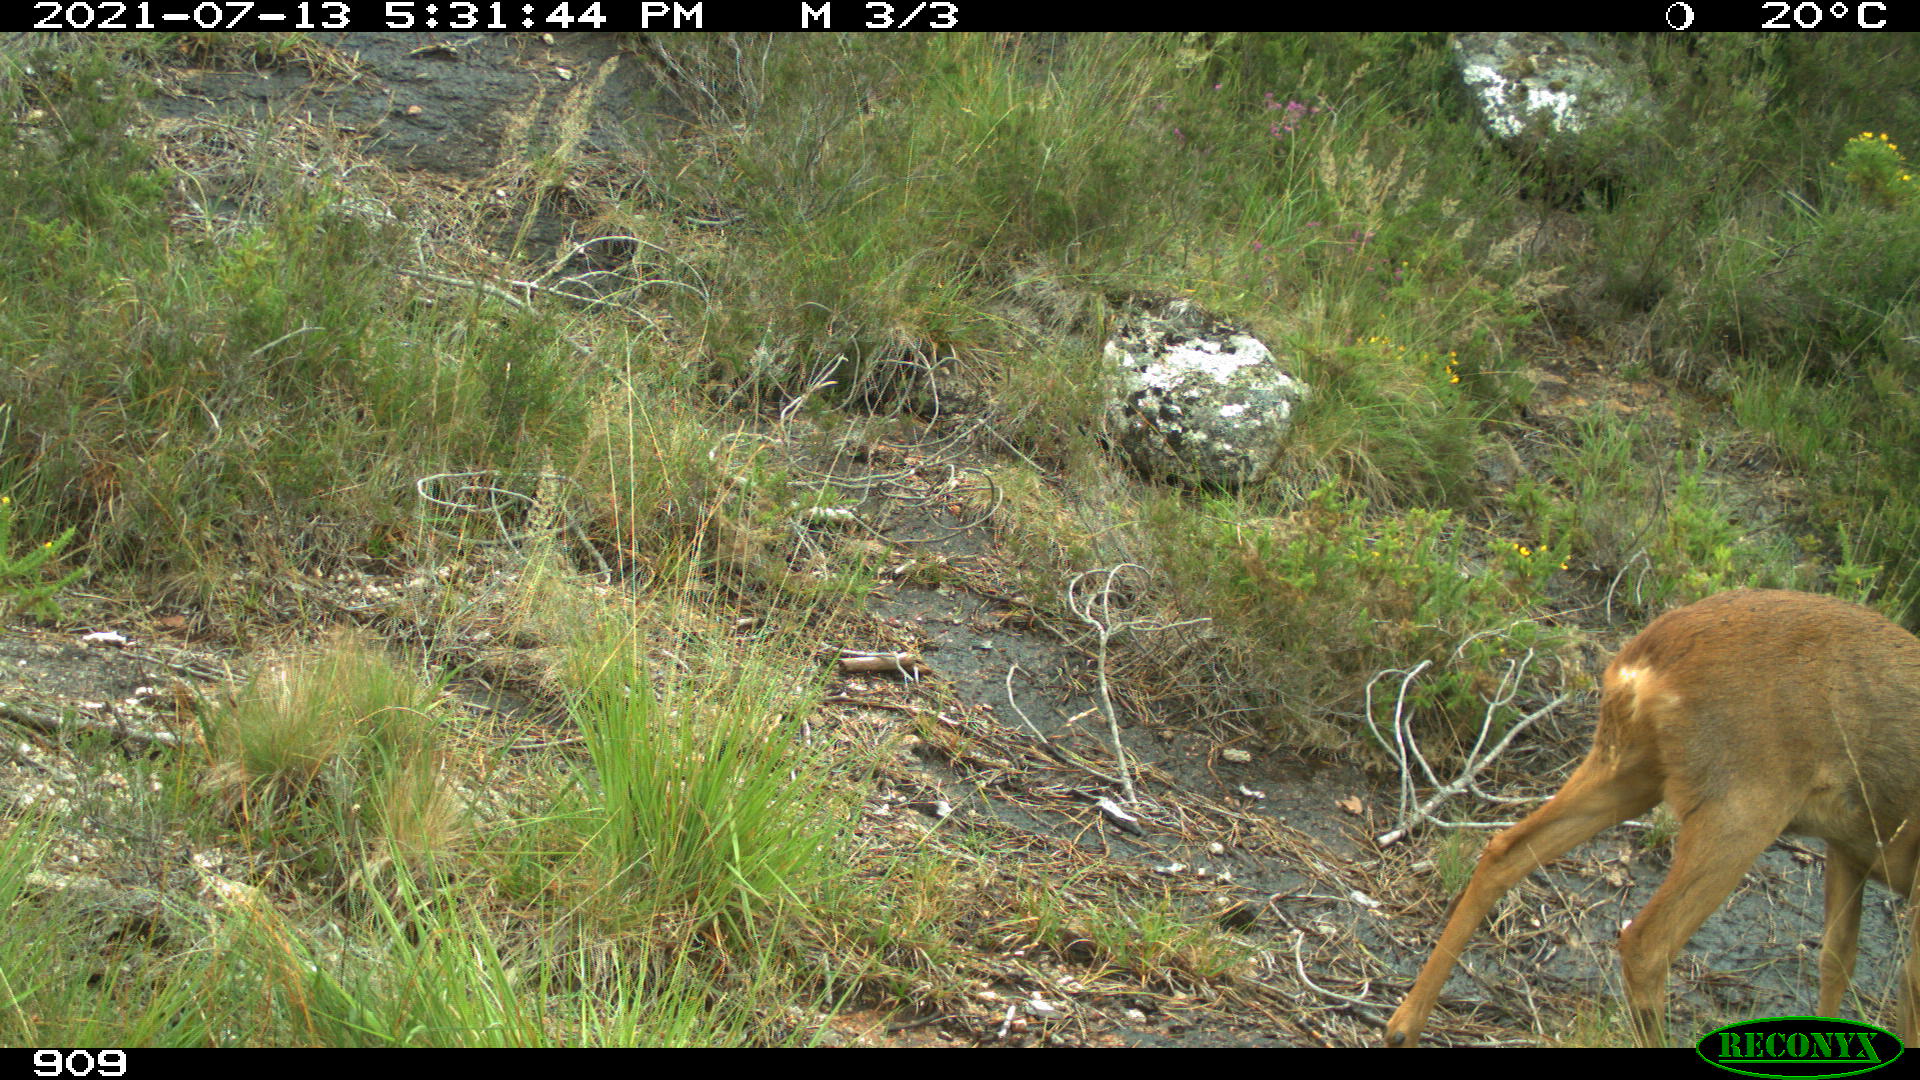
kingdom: Animalia
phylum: Chordata
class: Mammalia
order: Artiodactyla
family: Cervidae
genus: Capreolus
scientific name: Capreolus capreolus
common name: Western roe deer
